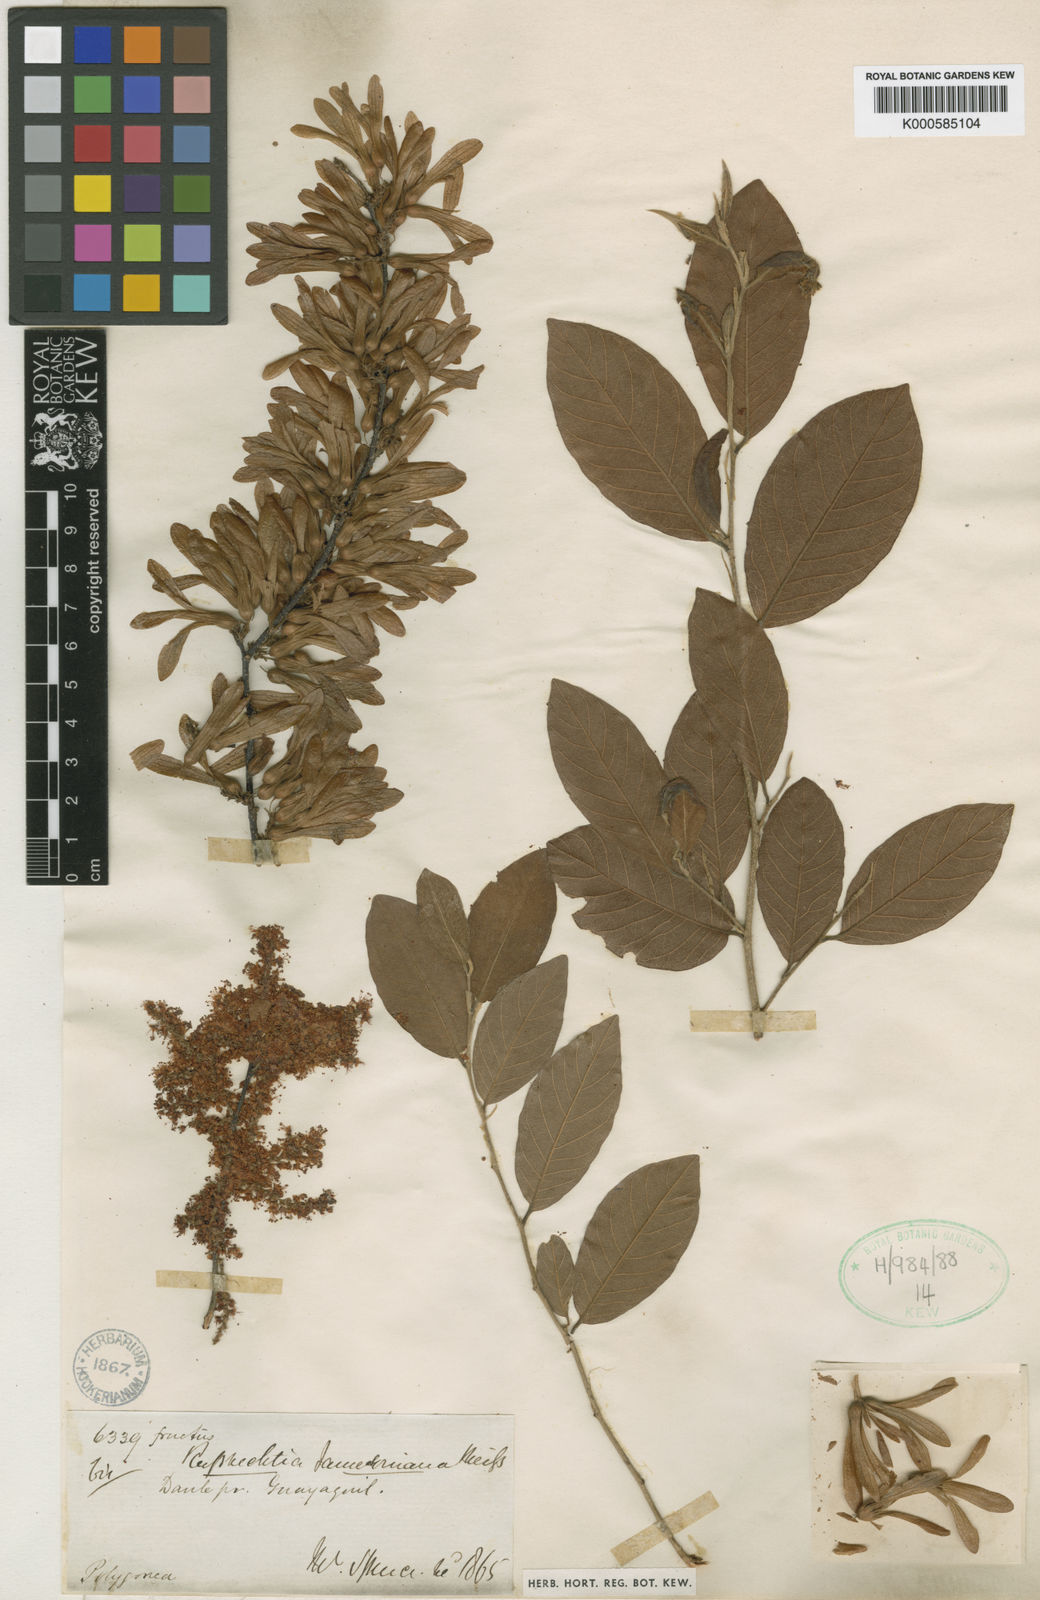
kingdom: Plantae
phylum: Tracheophyta
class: Magnoliopsida
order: Caryophyllales
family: Polygonaceae
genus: Ruprechtia
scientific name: Ruprechtia jamesonii
